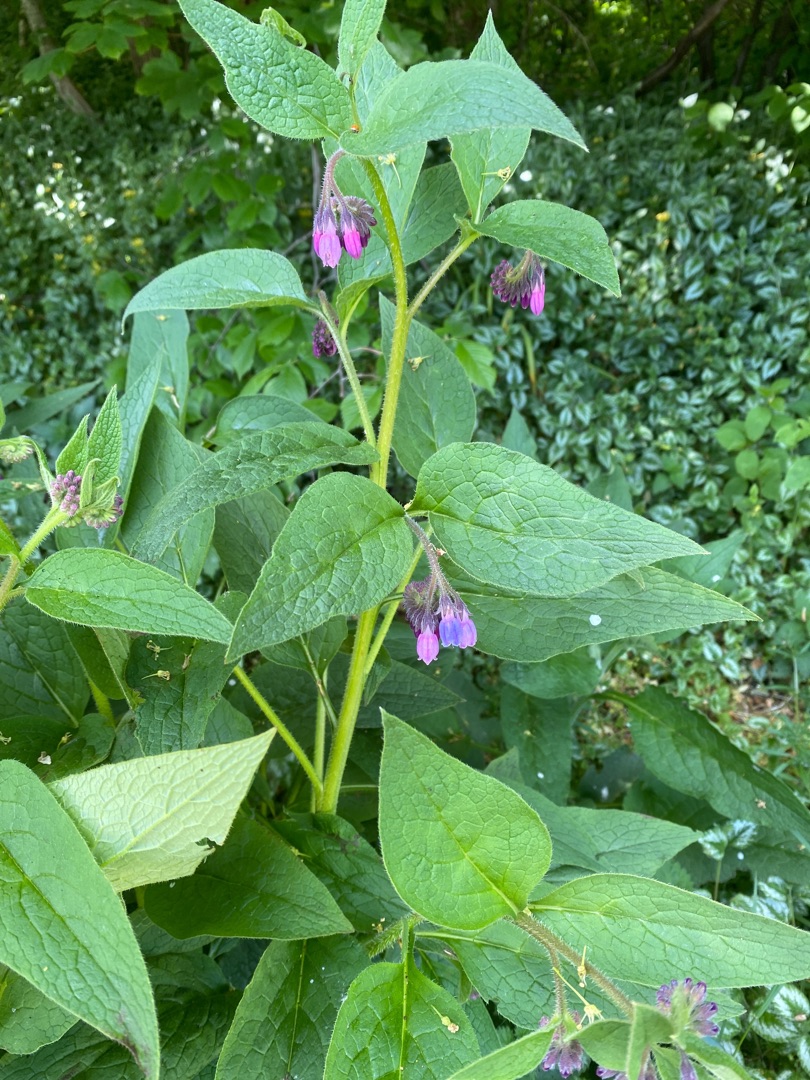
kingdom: Plantae
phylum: Tracheophyta
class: Magnoliopsida
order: Boraginales
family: Boraginaceae
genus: Symphytum
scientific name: Symphytum uplandicum
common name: Foder-kulsukker
